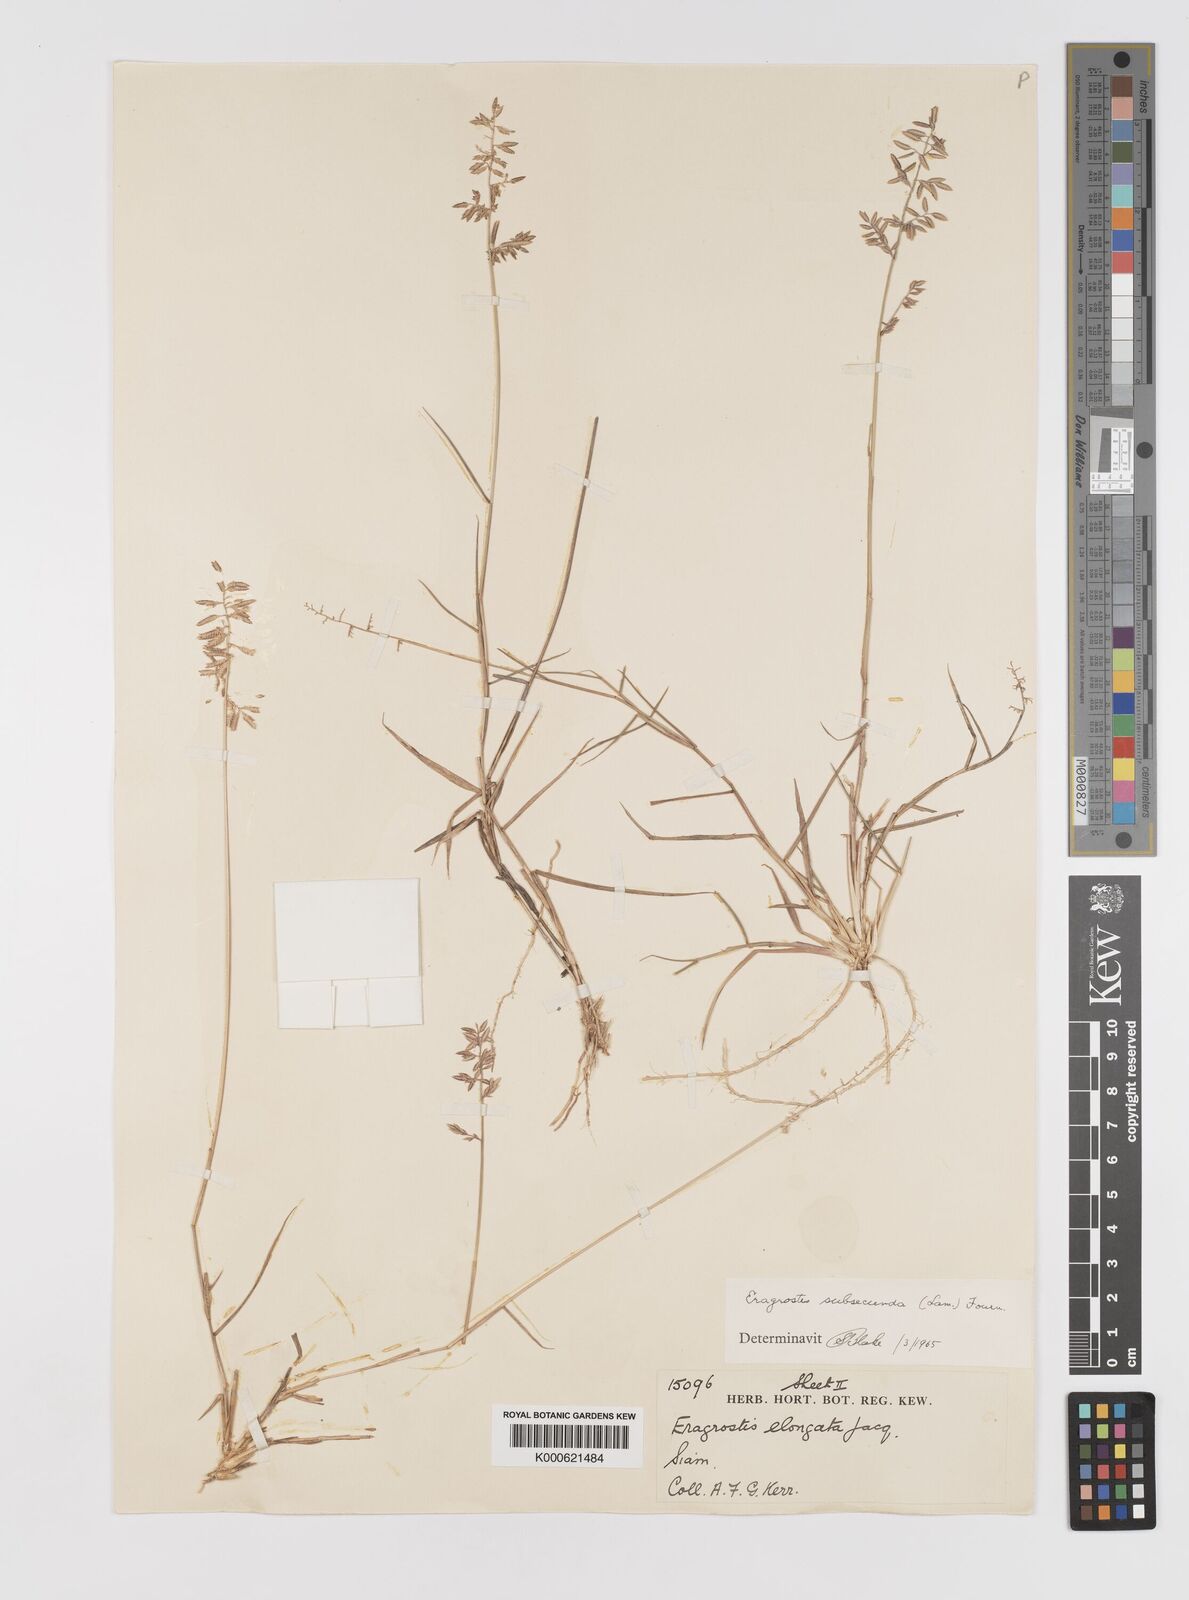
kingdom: Plantae
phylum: Tracheophyta
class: Liliopsida
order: Poales
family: Poaceae
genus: Eragrostis
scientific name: Eragrostis subsecunda
